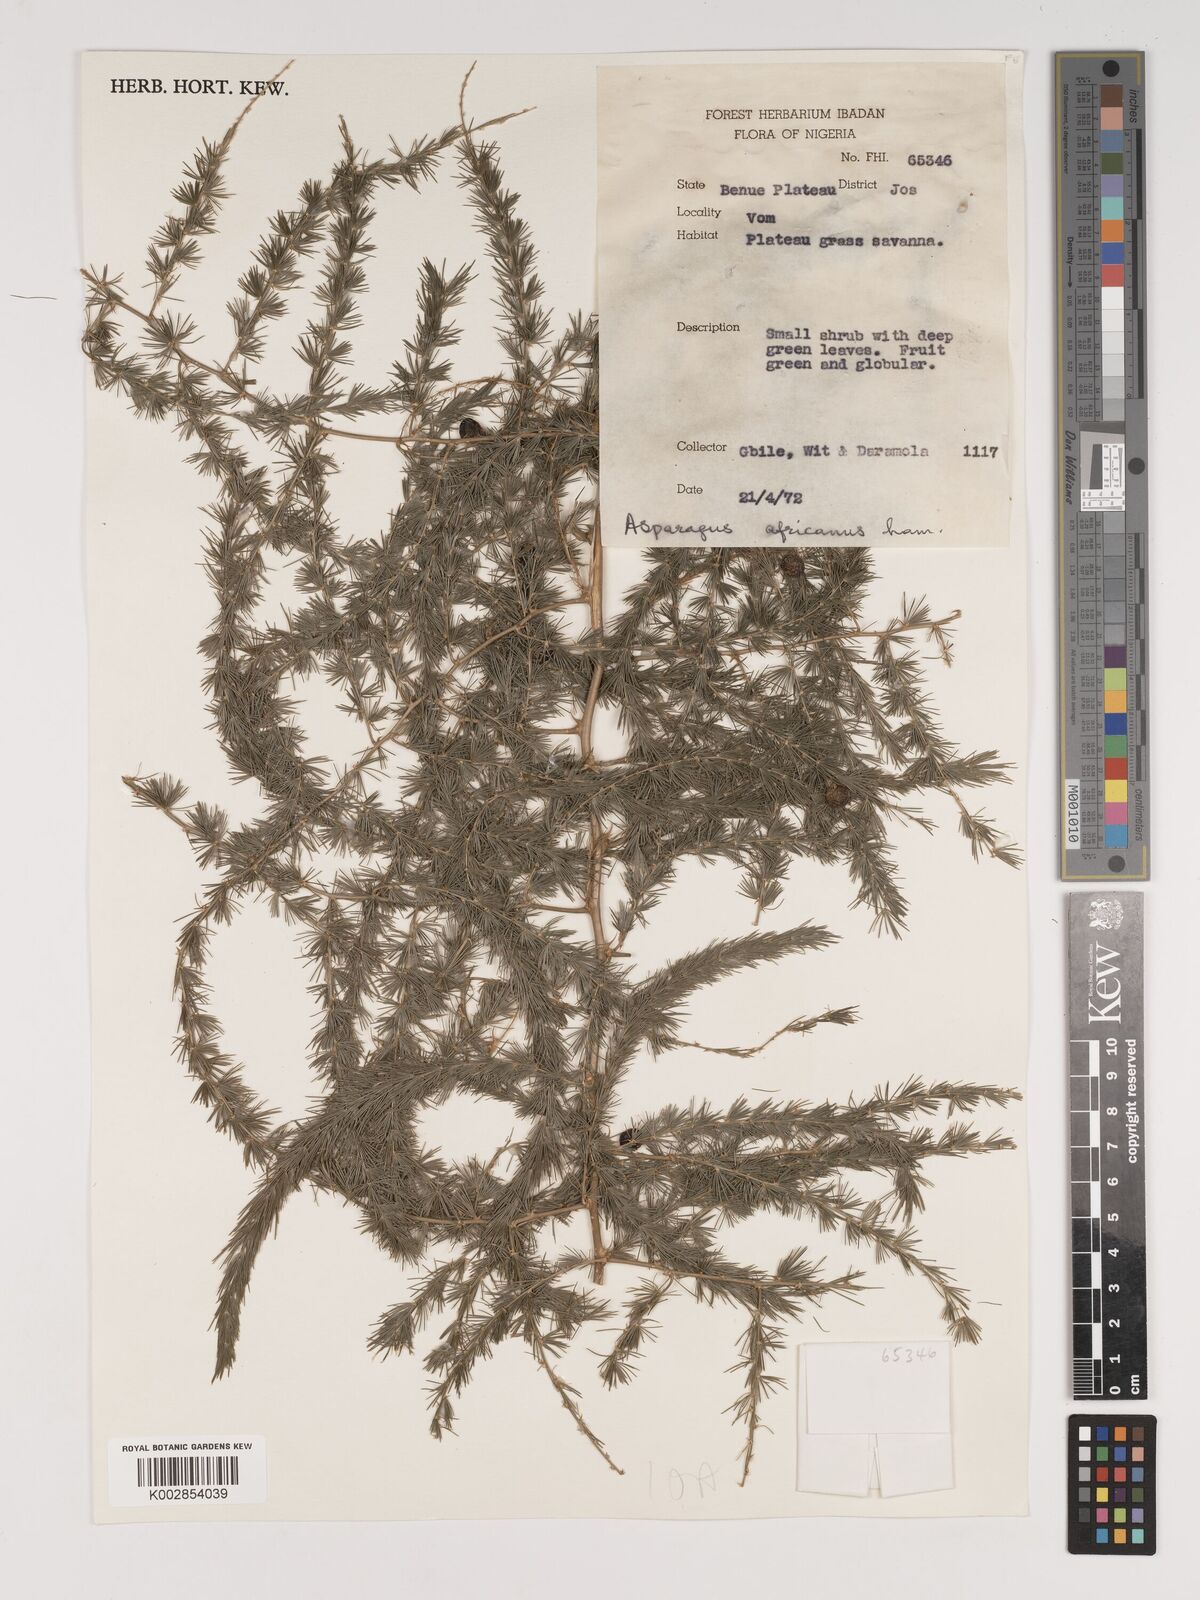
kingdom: Plantae
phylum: Tracheophyta
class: Liliopsida
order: Asparagales
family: Asparagaceae
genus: Asparagus
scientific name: Asparagus africanus
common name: Asparagus-fern
